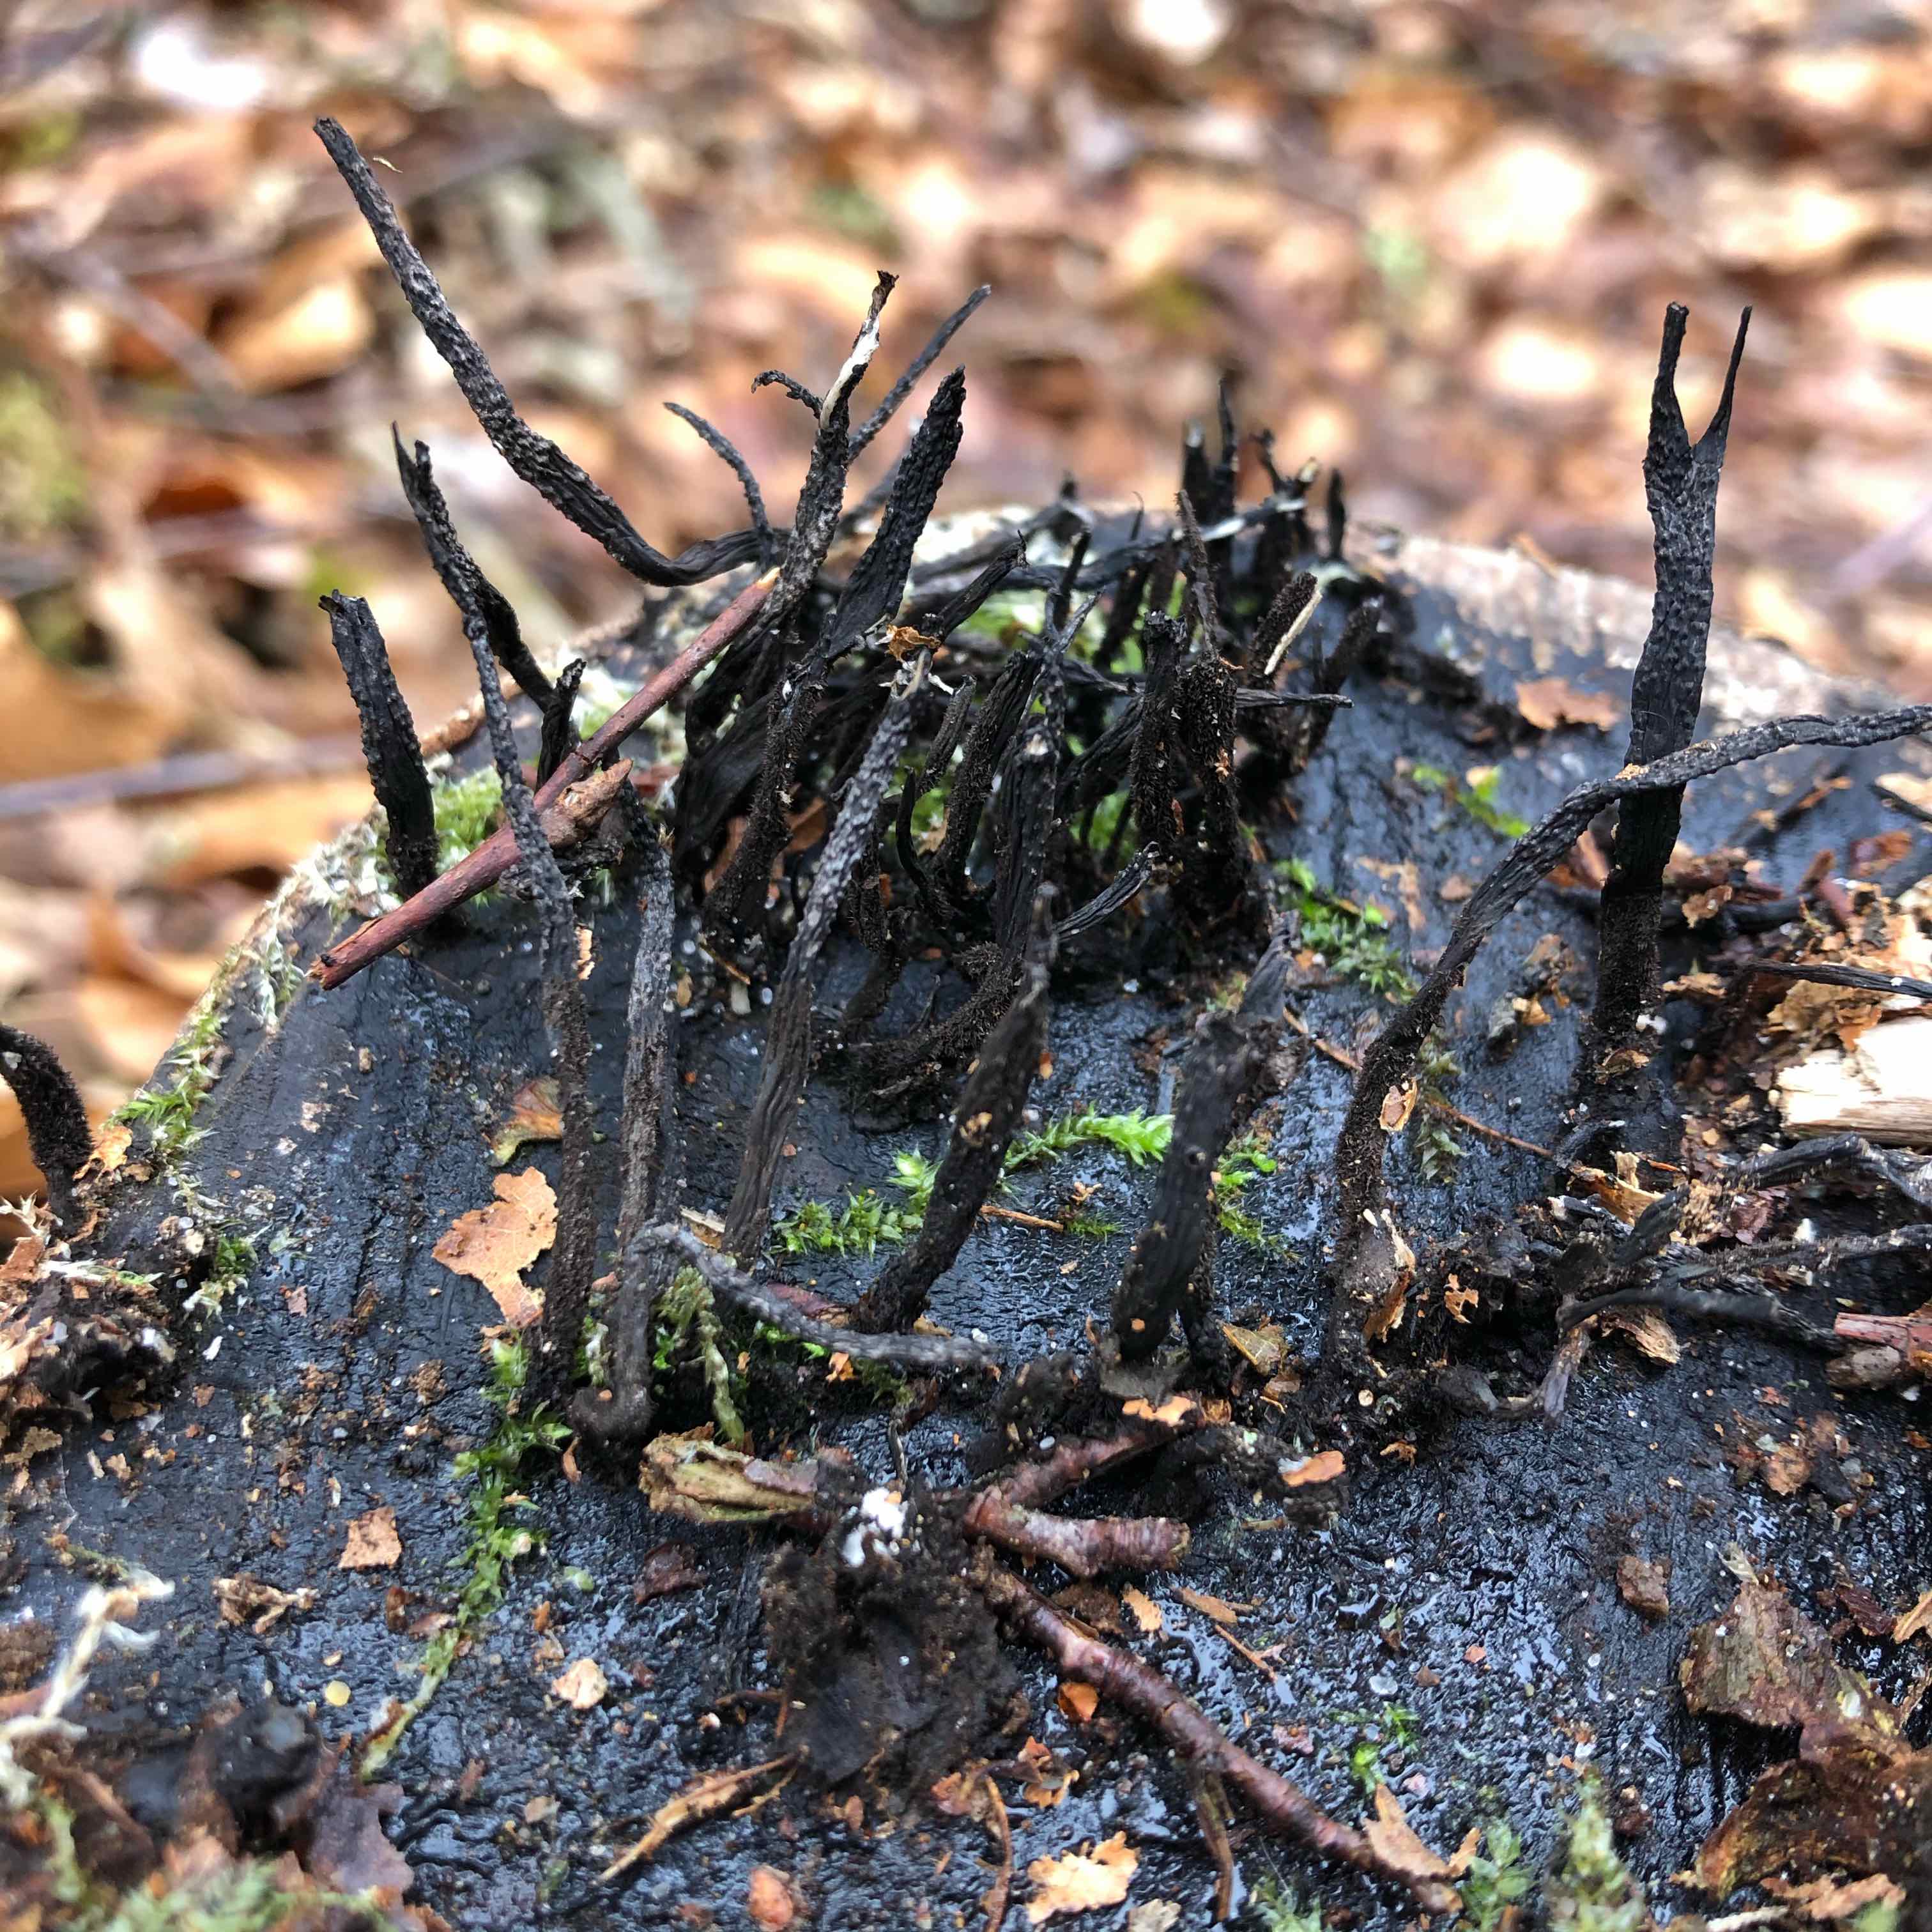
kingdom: Fungi
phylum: Ascomycota
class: Sordariomycetes
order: Xylariales
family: Xylariaceae
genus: Xylaria
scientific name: Xylaria hypoxylon
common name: grenet stødsvamp
